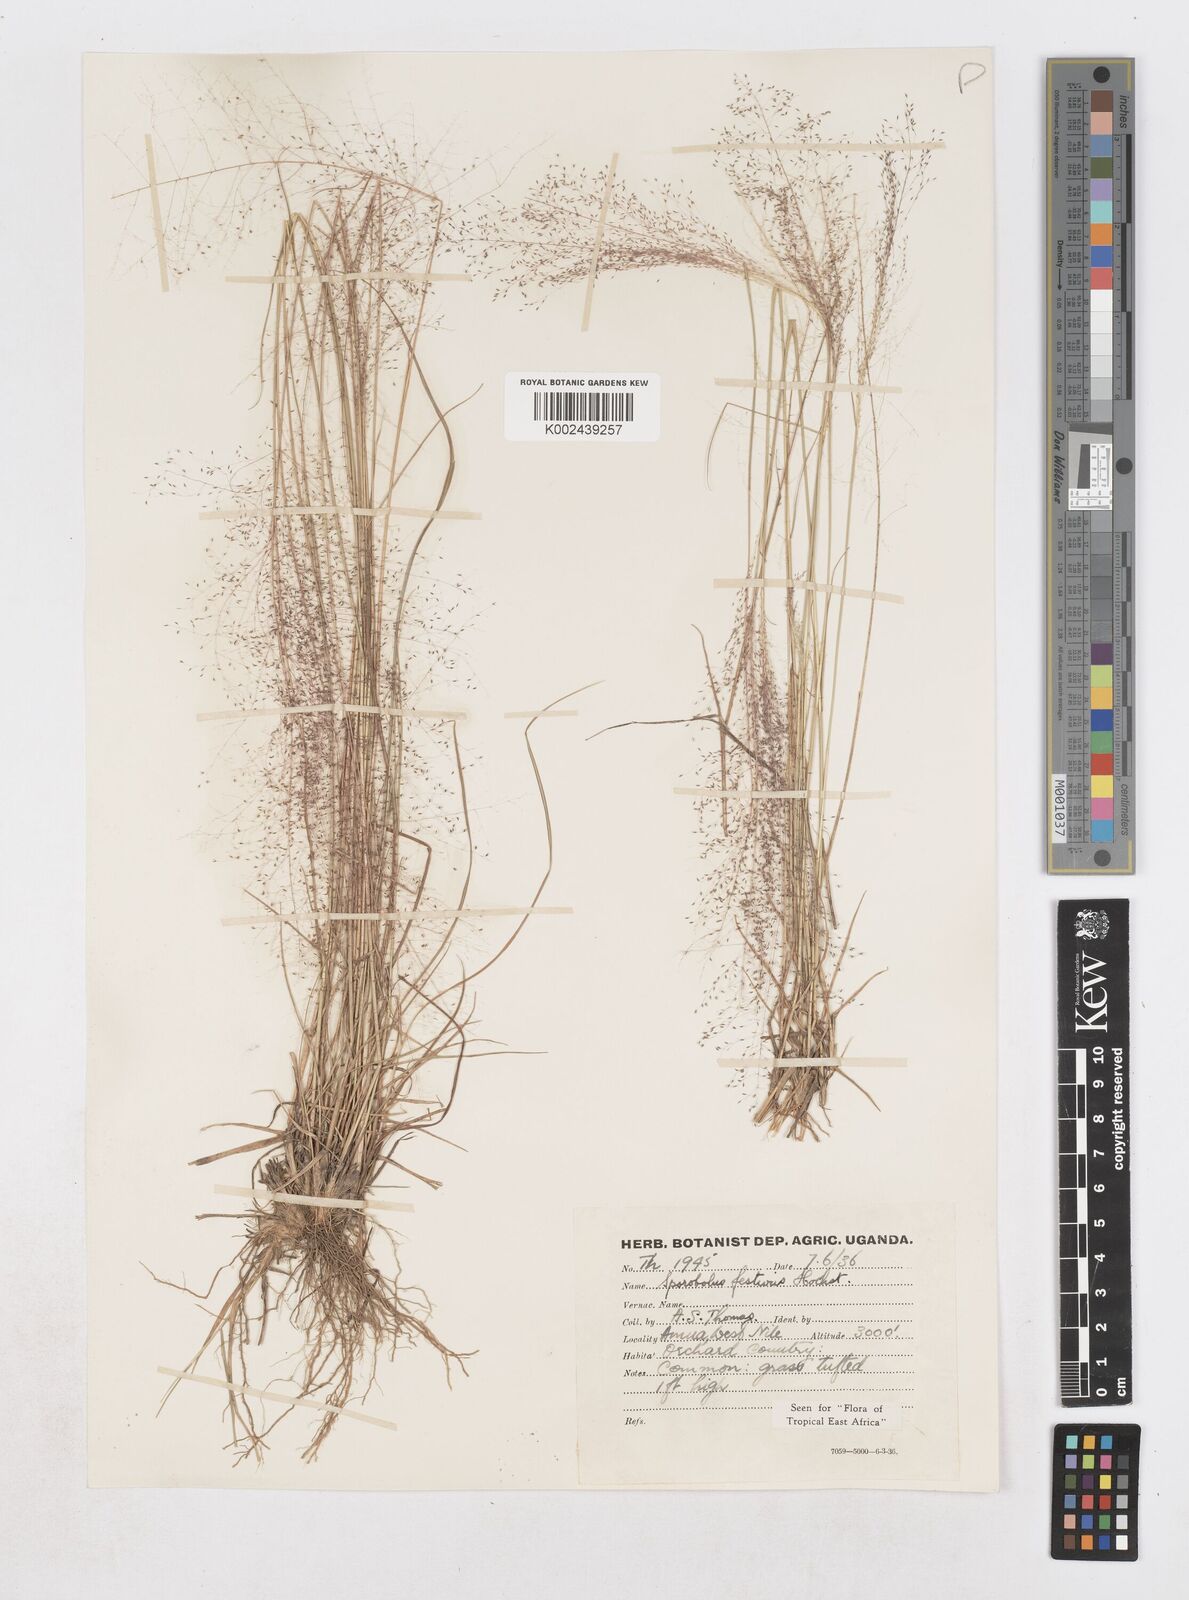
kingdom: Plantae
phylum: Tracheophyta
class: Liliopsida
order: Poales
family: Poaceae
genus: Sporobolus
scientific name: Sporobolus festivus
